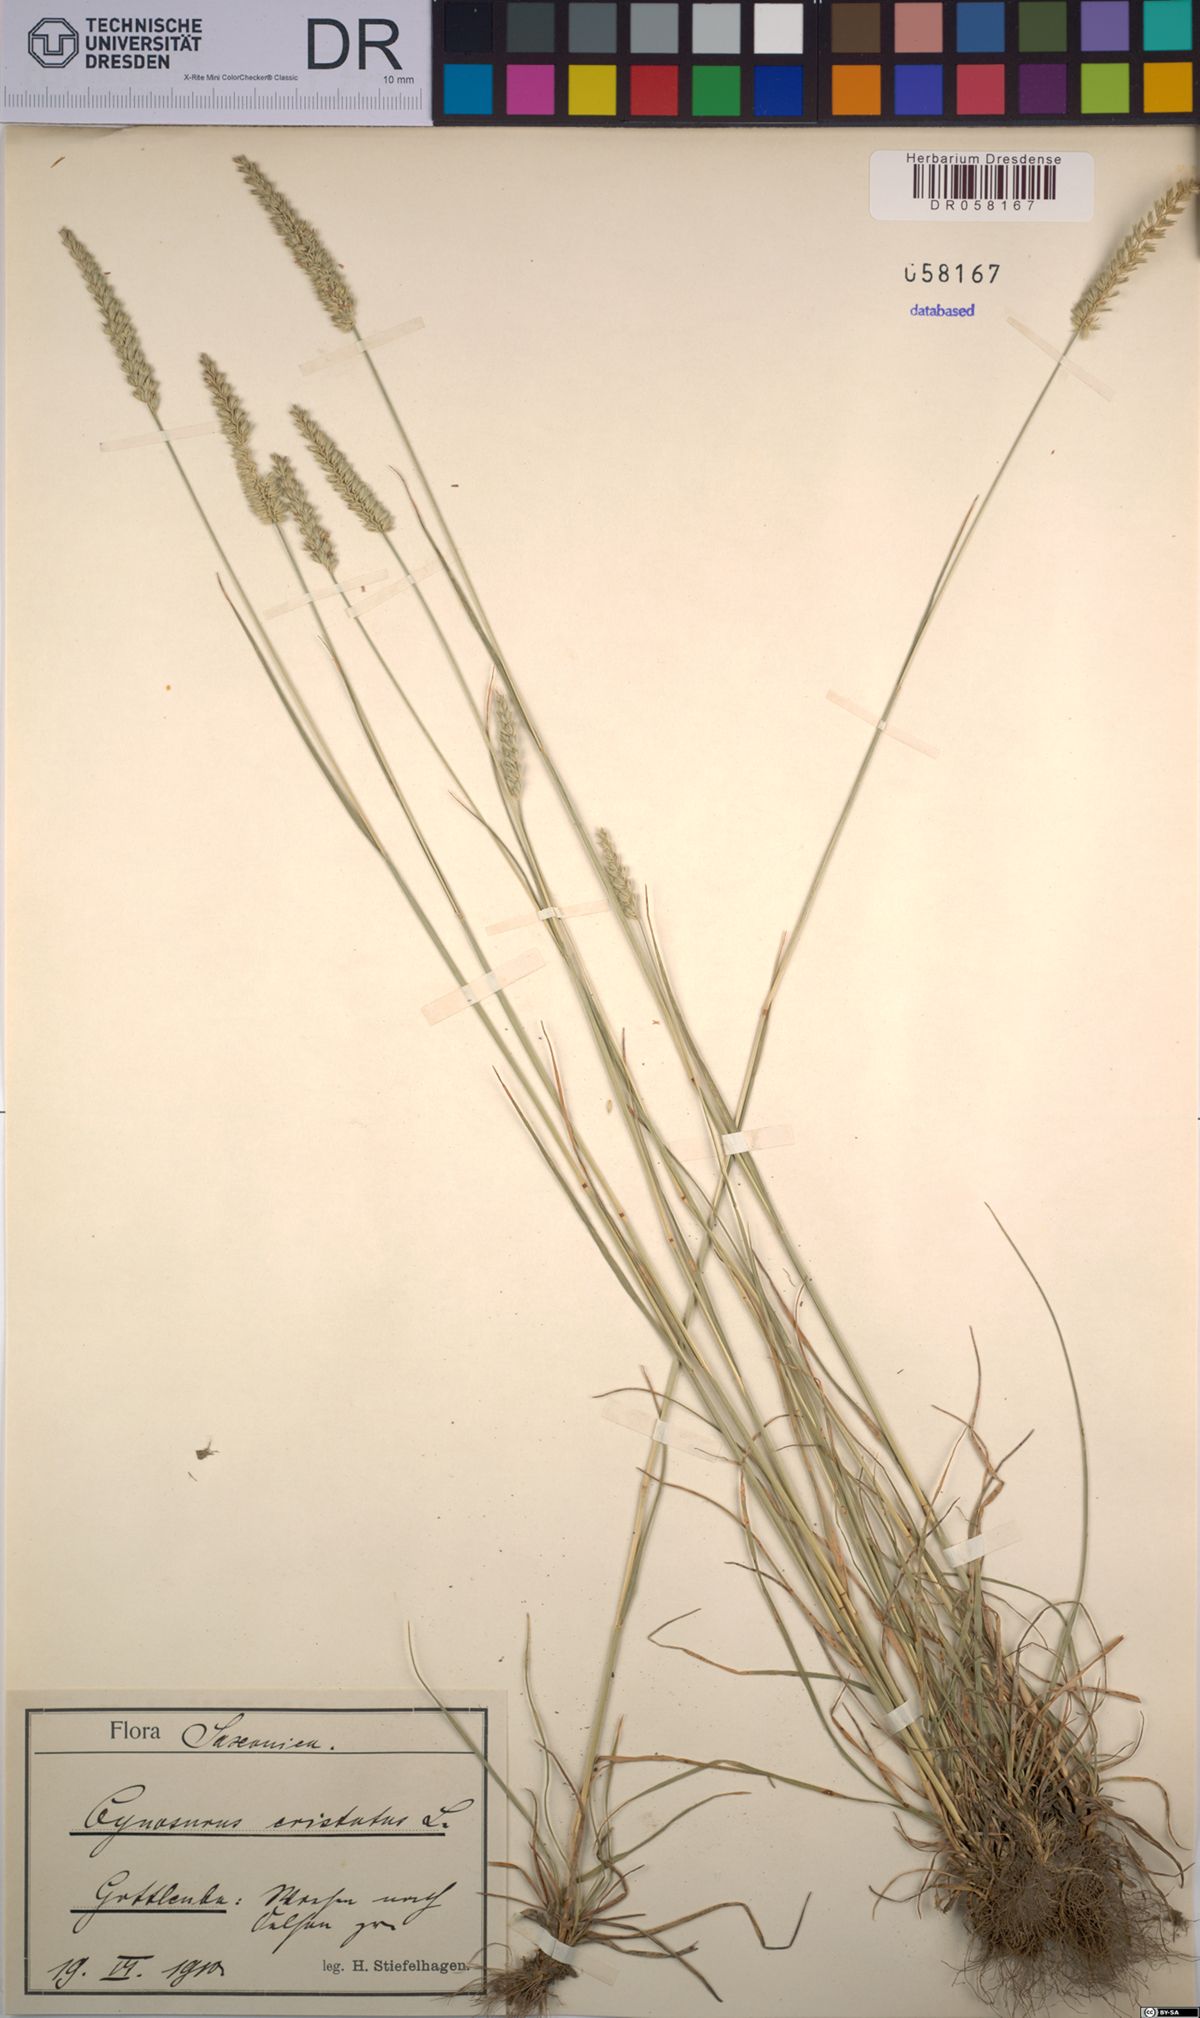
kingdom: Plantae
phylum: Tracheophyta
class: Liliopsida
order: Poales
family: Poaceae
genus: Cynosurus
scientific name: Cynosurus cristatus
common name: Crested dog's-tail
